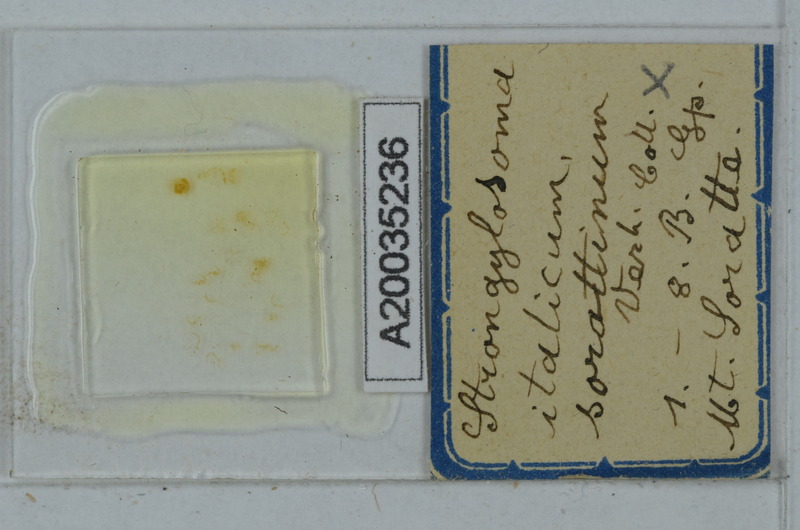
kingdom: Animalia
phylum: Arthropoda
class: Diplopoda
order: Polydesmida
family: Paradoxosomatidae
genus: Strongylosoma
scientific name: Strongylosoma italica
